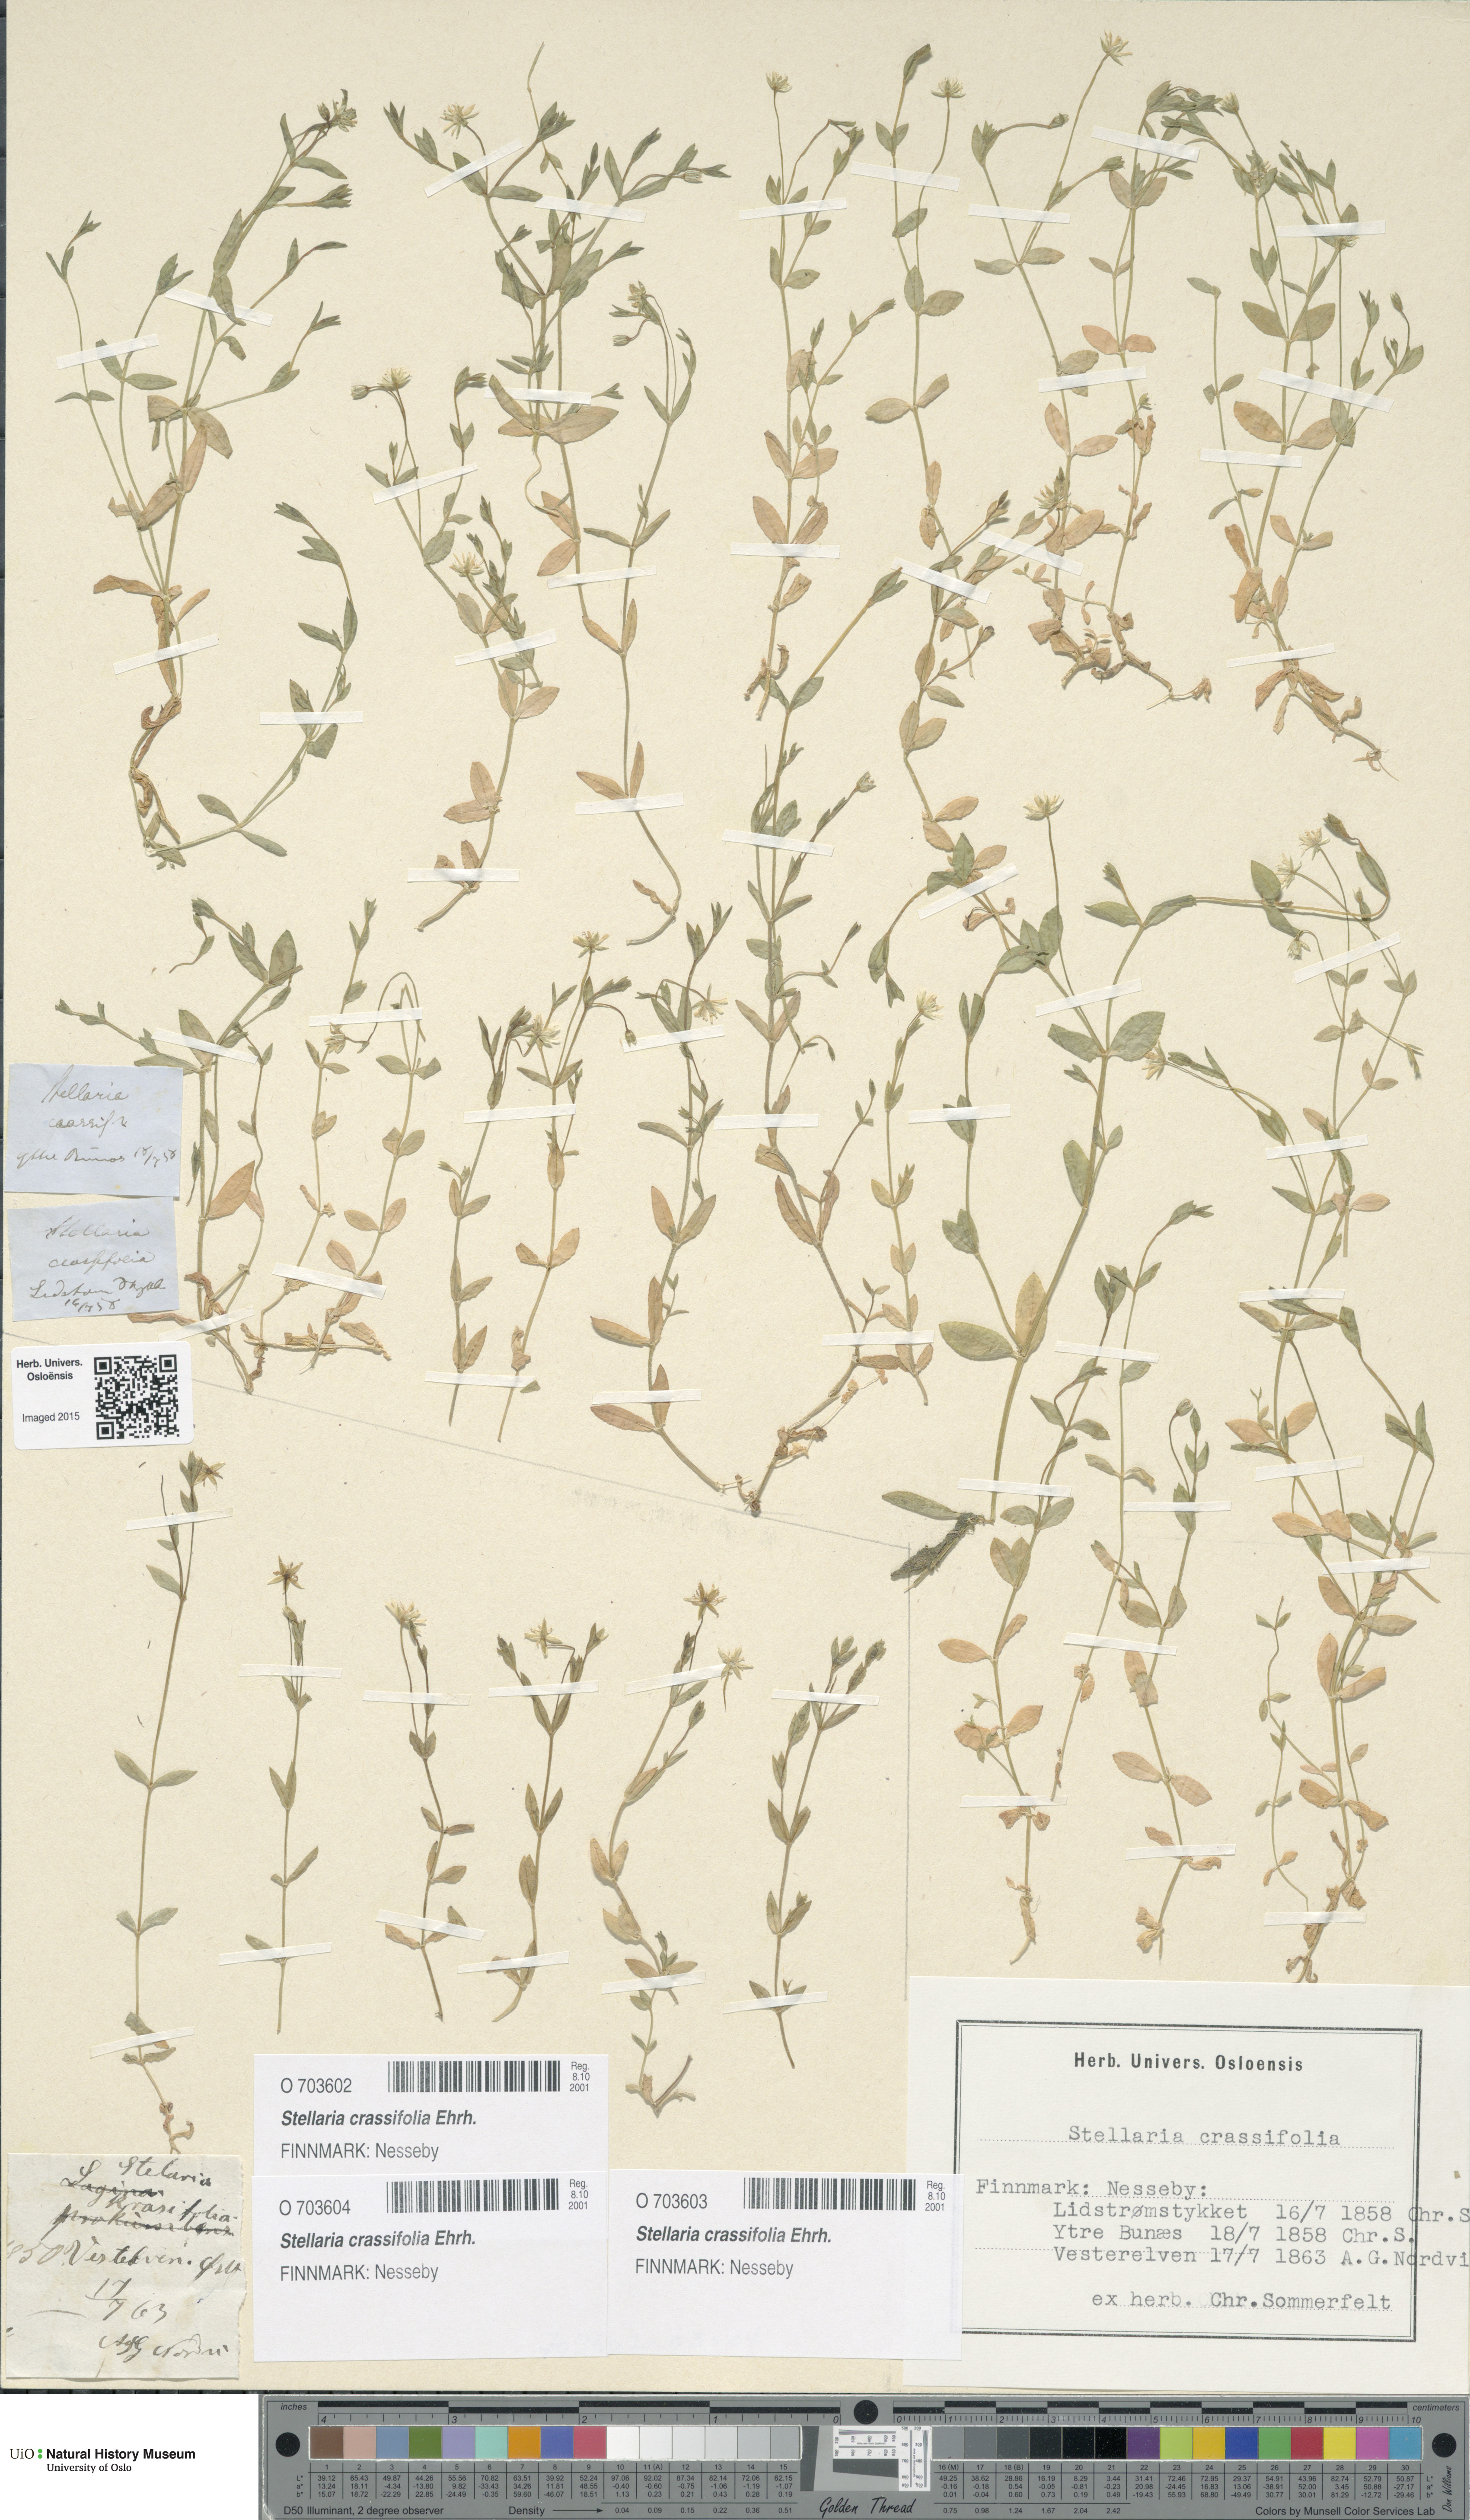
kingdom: Plantae
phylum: Tracheophyta
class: Magnoliopsida
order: Caryophyllales
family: Caryophyllaceae
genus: Stellaria
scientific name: Stellaria crassifolia
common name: Fleshy starwort
